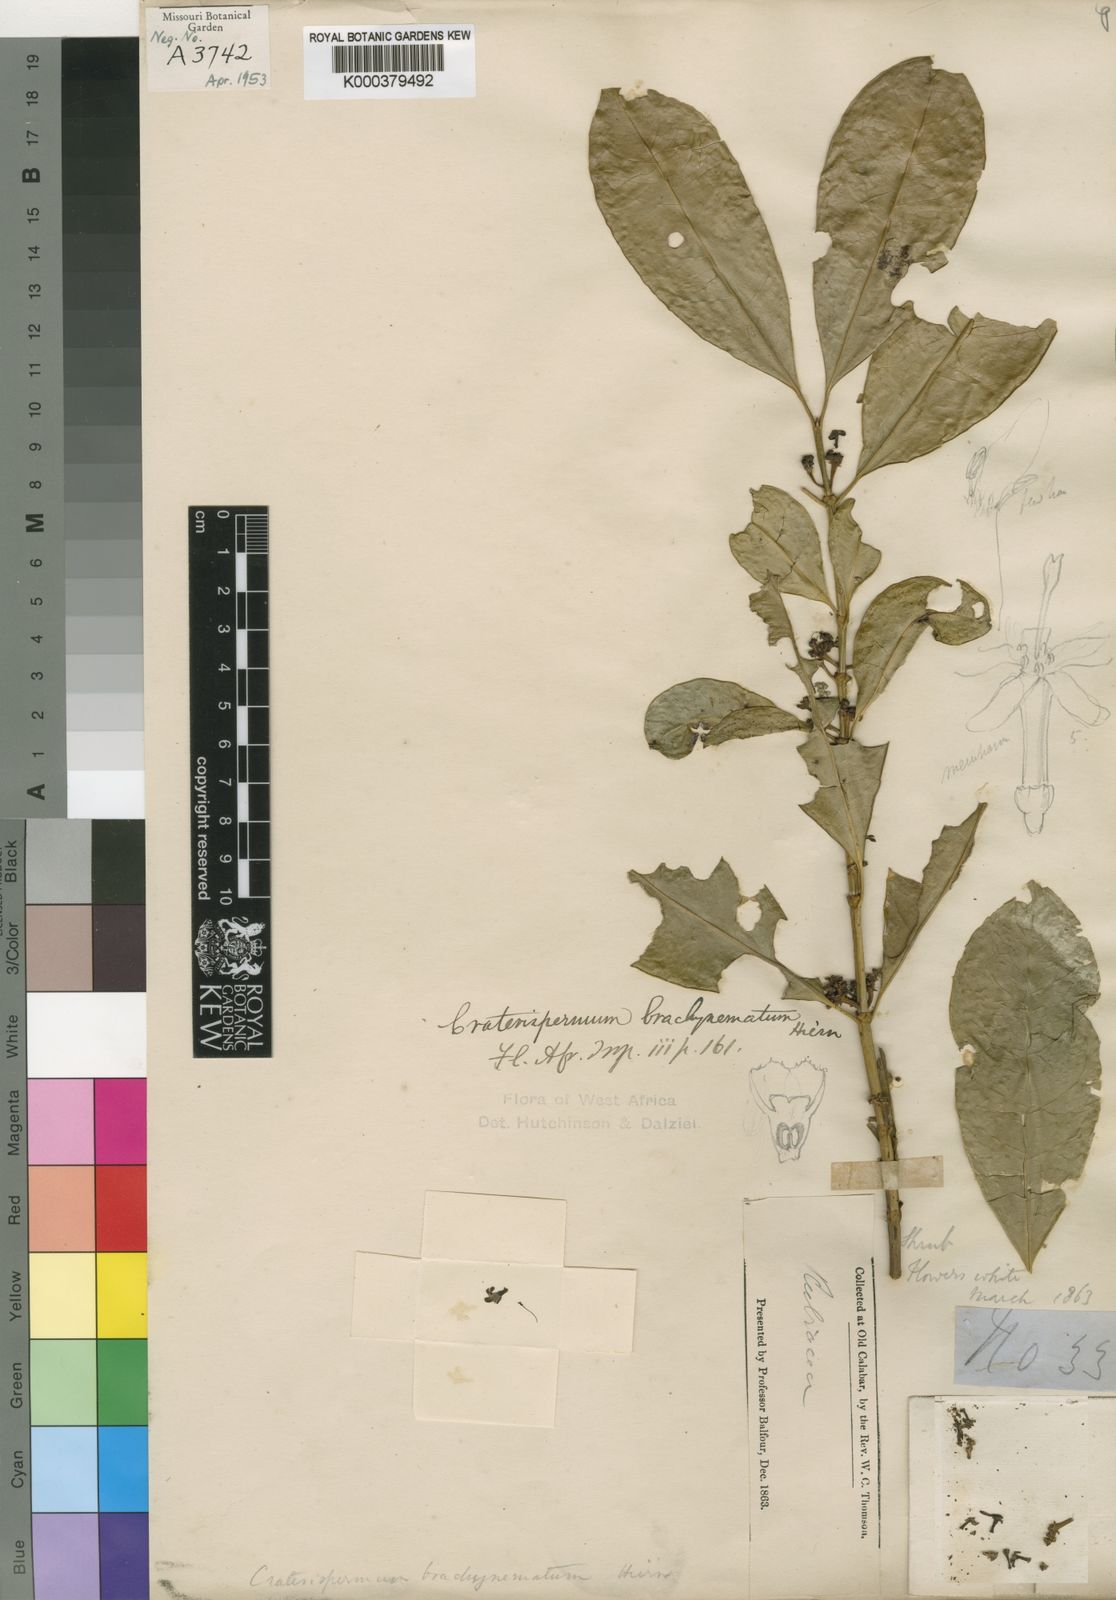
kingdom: Plantae
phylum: Tracheophyta
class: Magnoliopsida
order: Gentianales
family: Rubiaceae
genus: Craterispermum
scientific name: Craterispermum cerinanthum
